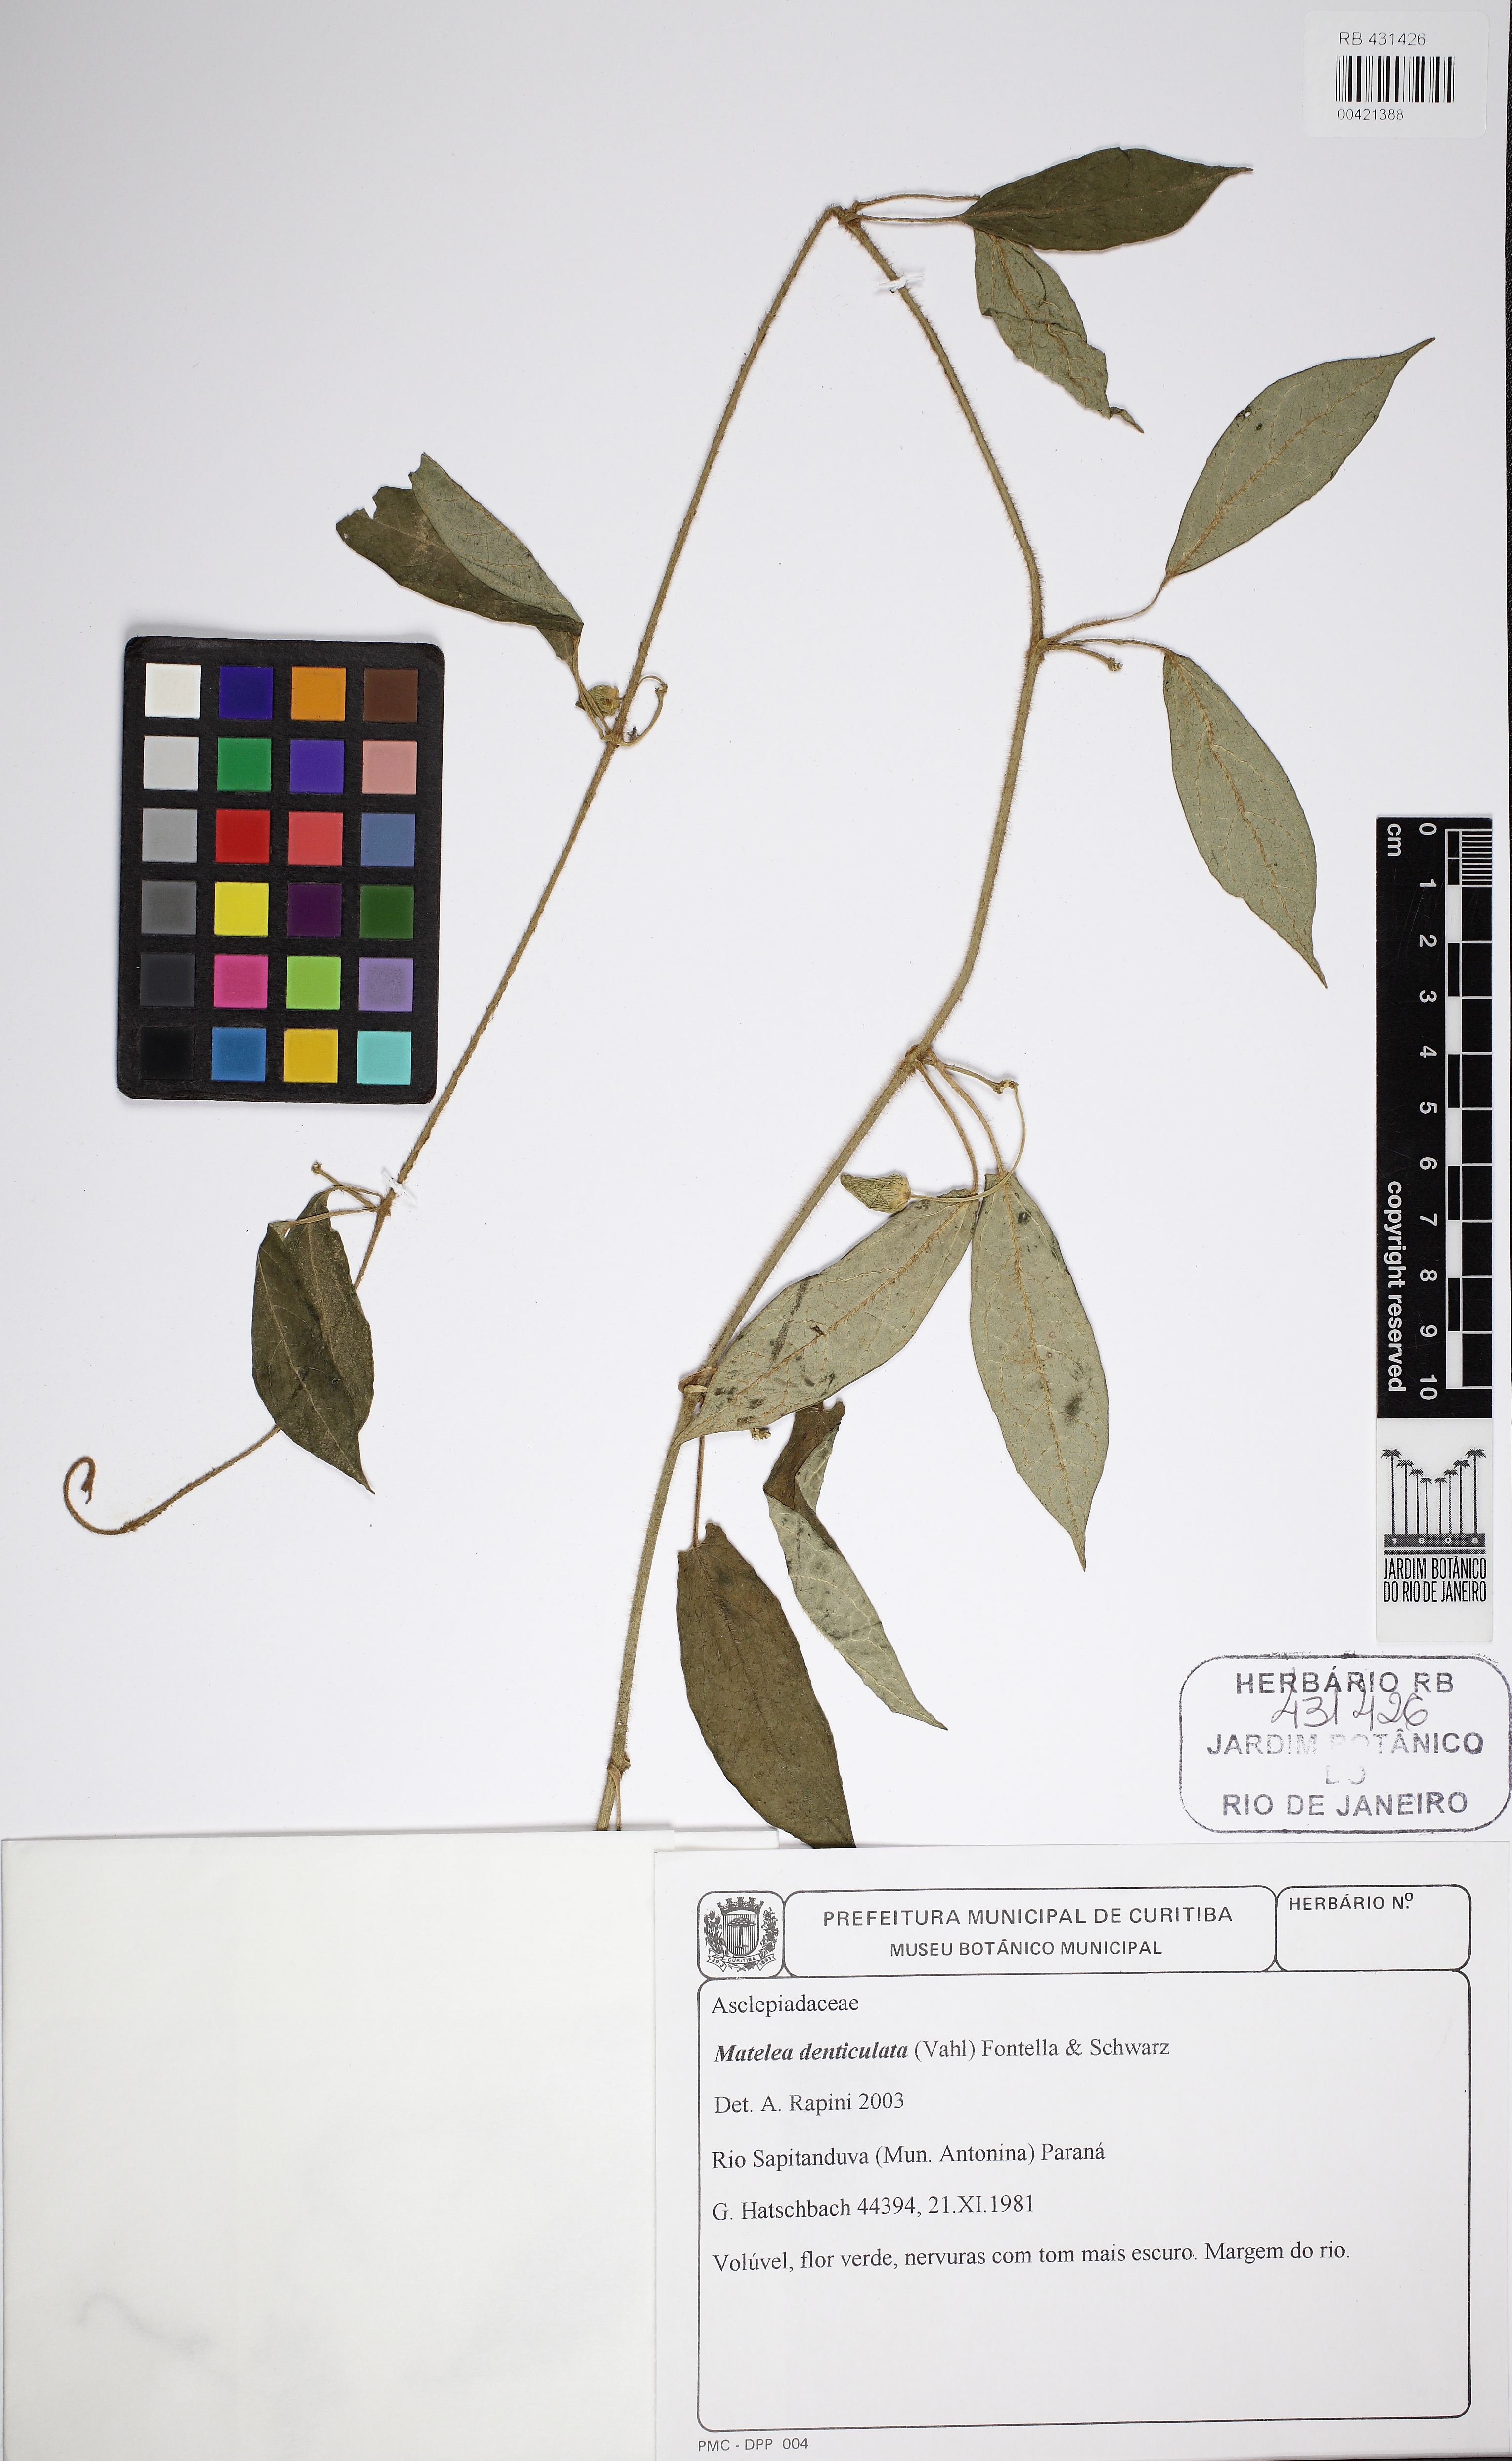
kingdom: Plantae
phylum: Tracheophyta
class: Magnoliopsida
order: Gentianales
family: Apocynaceae
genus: Chloropetalum
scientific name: Chloropetalum denticulatum
